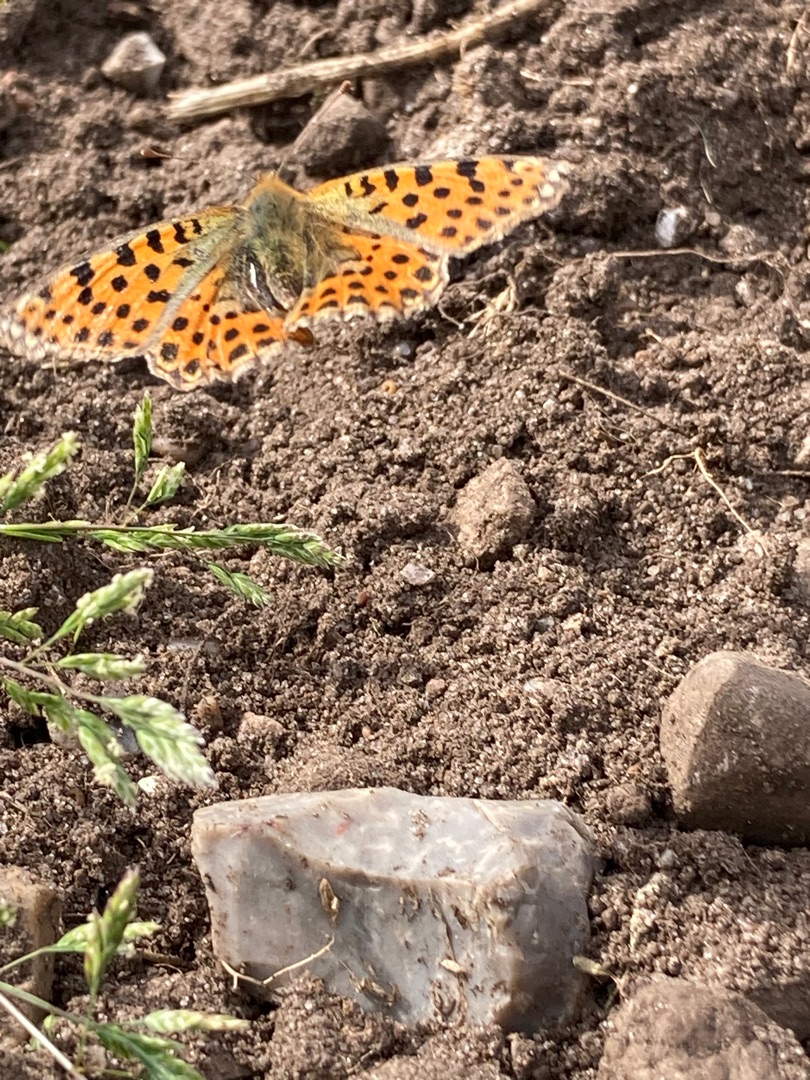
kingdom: Animalia
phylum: Arthropoda
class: Insecta
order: Lepidoptera
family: Nymphalidae
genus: Issoria
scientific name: Issoria lathonia
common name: Storplettet perlemorsommerfugl
